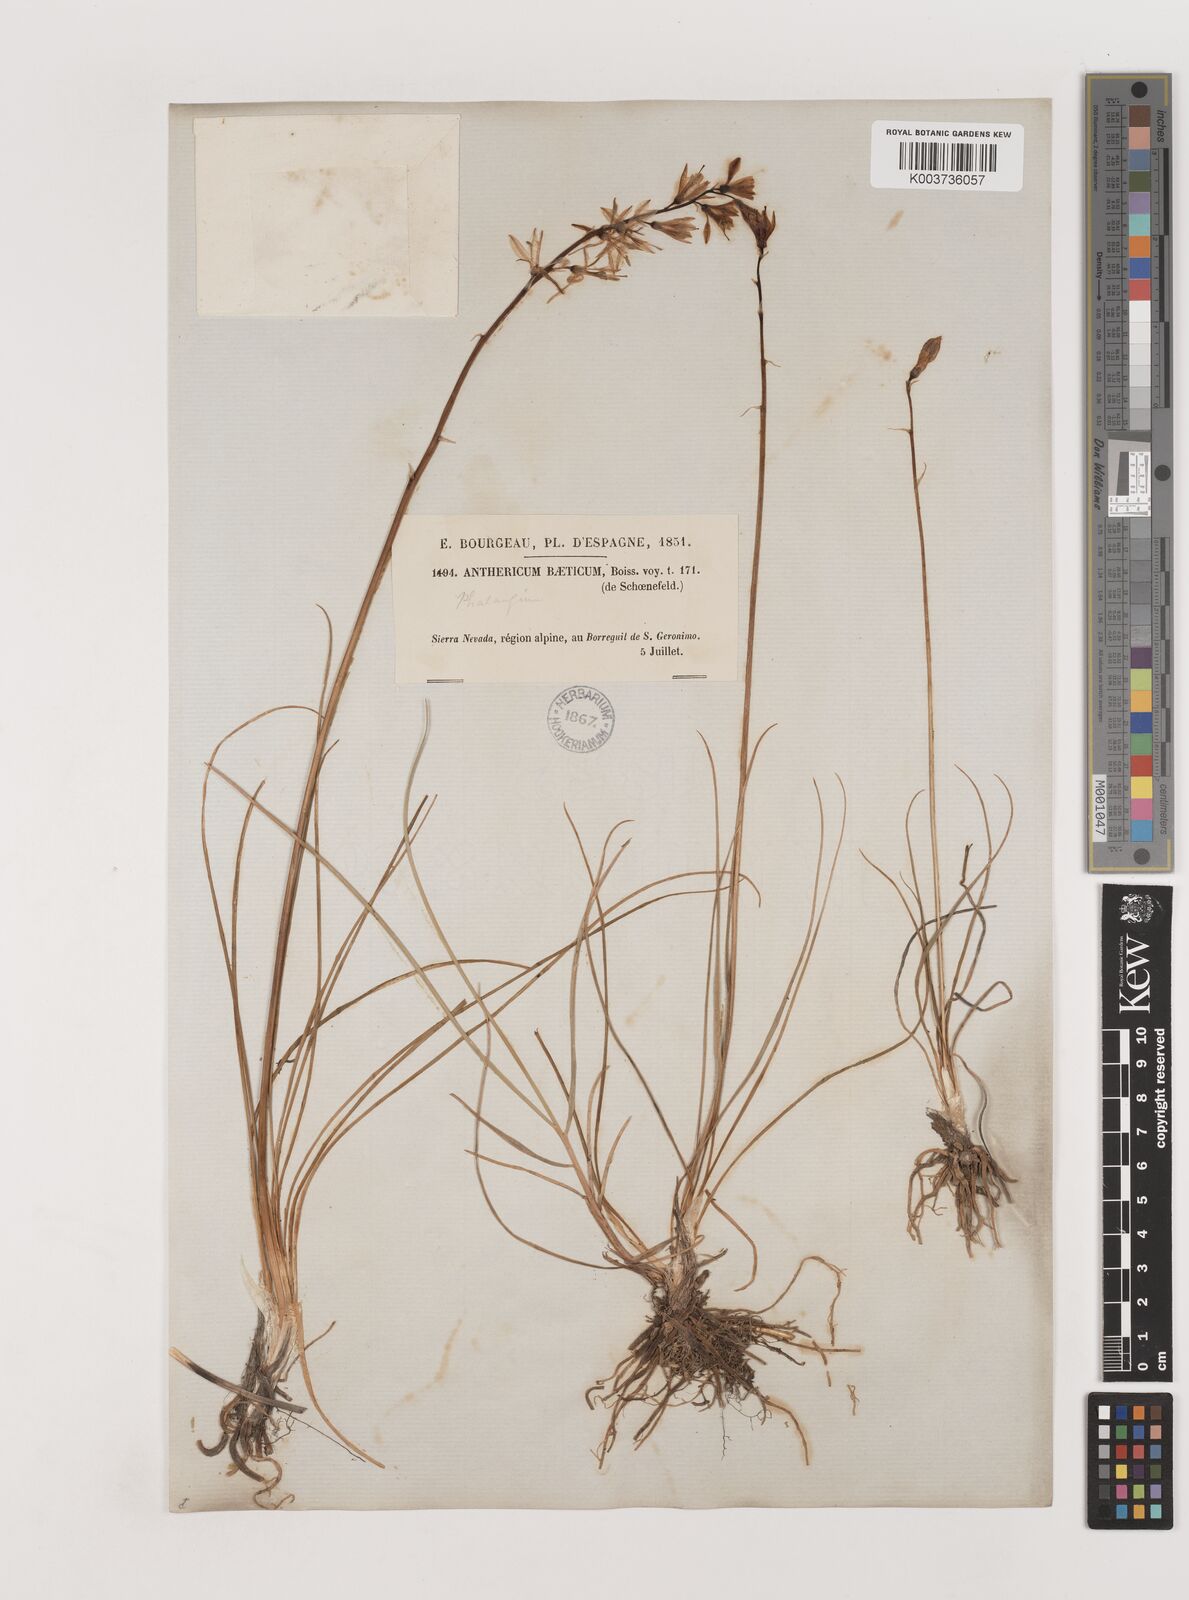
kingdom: Plantae
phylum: Tracheophyta
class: Liliopsida
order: Asparagales
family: Asparagaceae
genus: Anthericum
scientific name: Anthericum liliago
